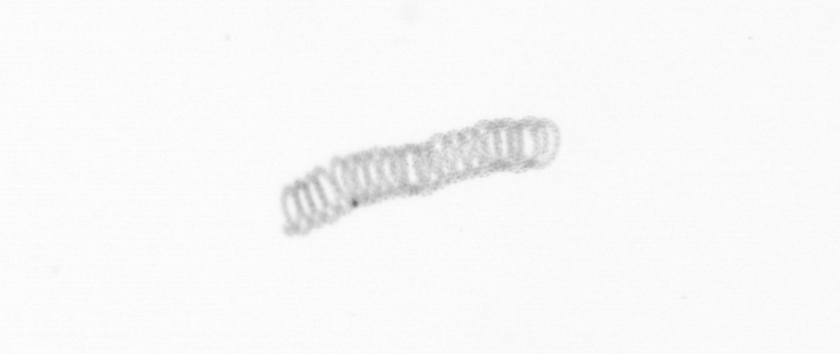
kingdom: Chromista
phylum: Ochrophyta
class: Bacillariophyceae
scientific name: Bacillariophyceae
